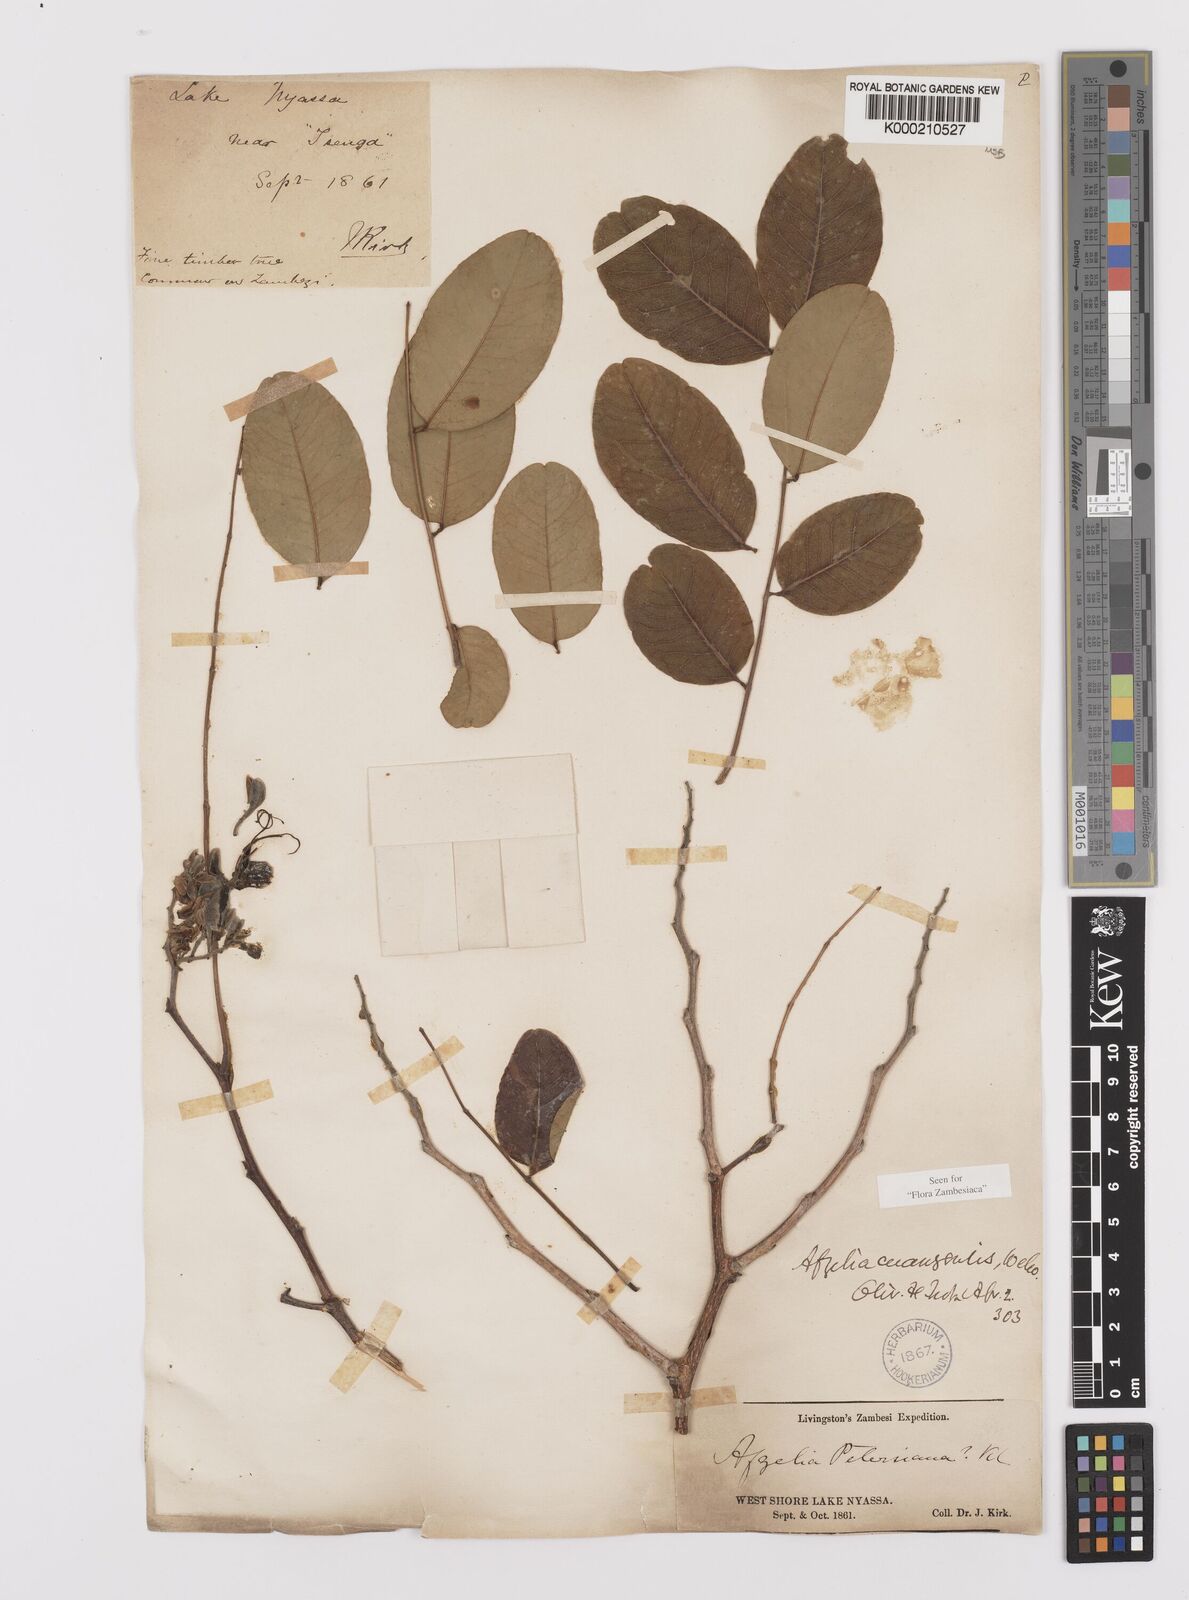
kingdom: Plantae
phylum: Tracheophyta
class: Magnoliopsida
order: Fabales
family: Fabaceae
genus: Afzelia
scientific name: Afzelia quanzensis
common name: Pod mahogany
